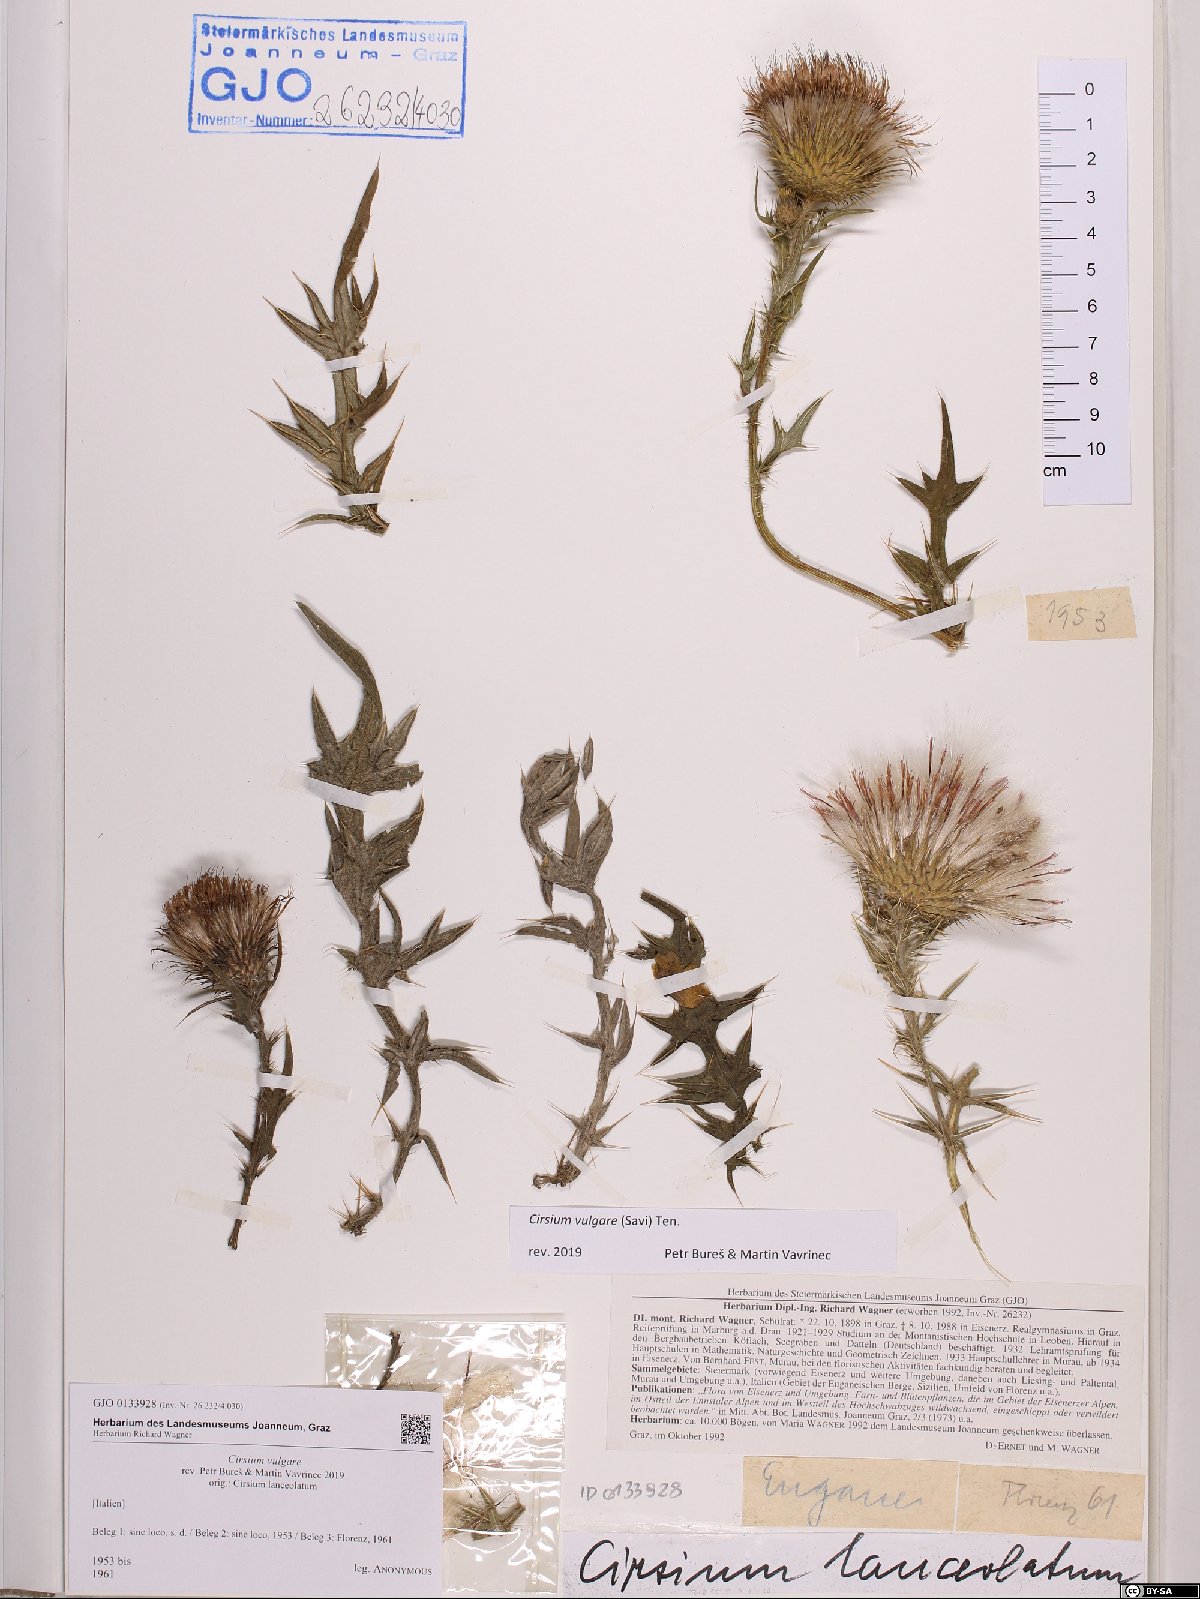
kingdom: Plantae
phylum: Tracheophyta
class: Magnoliopsida
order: Asterales
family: Asteraceae
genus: Cirsium
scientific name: Cirsium vulgare
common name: Bull thistle
